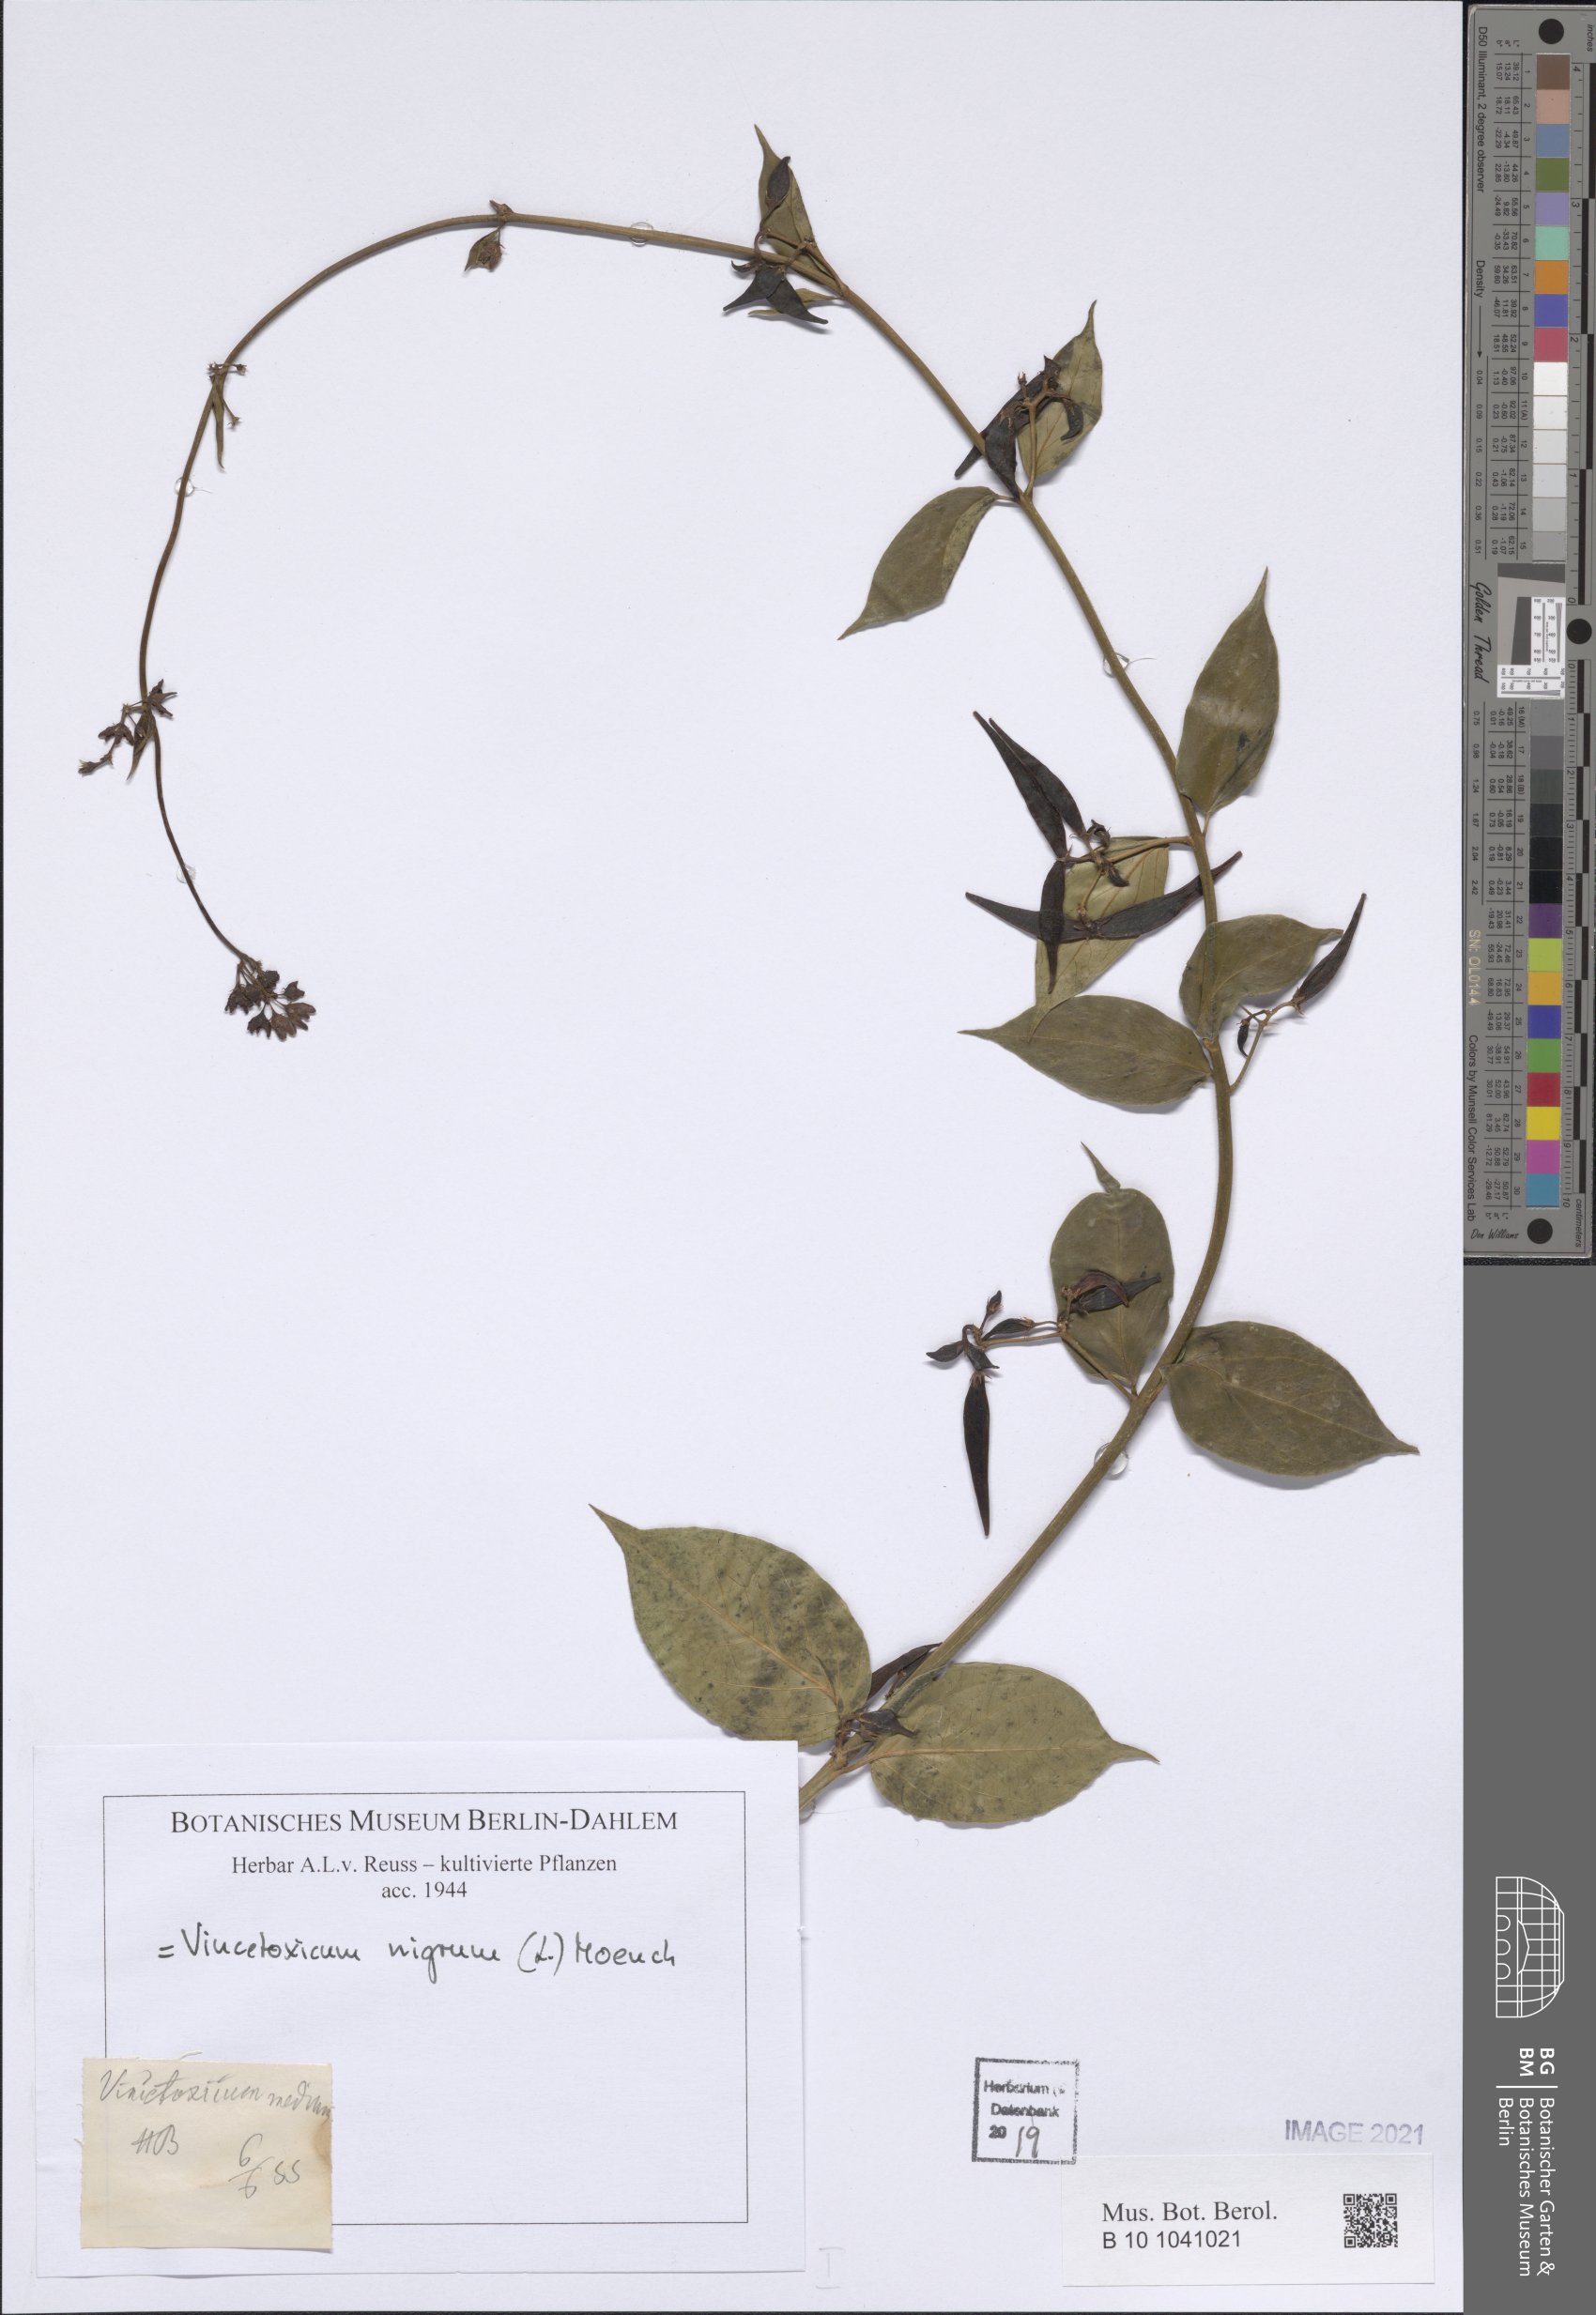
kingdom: Plantae
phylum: Tracheophyta
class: Magnoliopsida
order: Gentianales
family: Apocynaceae
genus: Vincetoxicum
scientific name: Vincetoxicum nigrum
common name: Black swallow-wort
